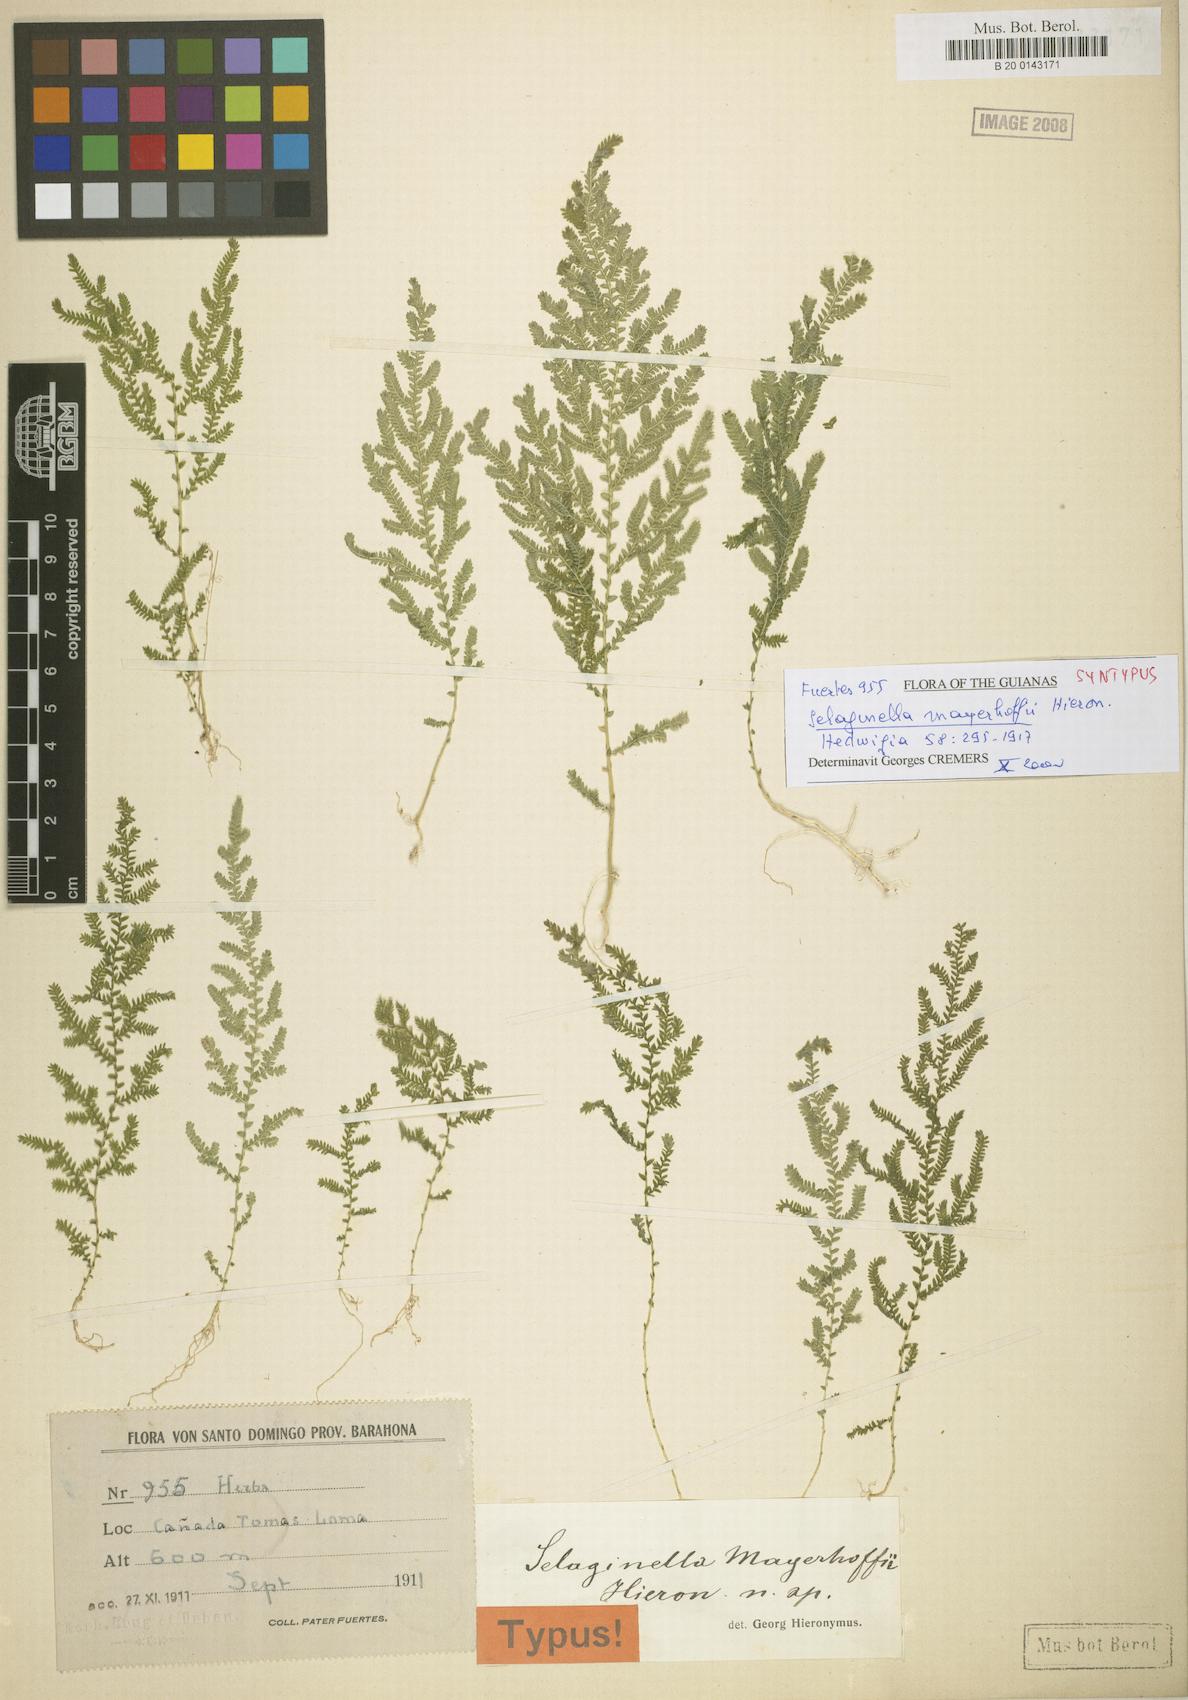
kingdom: Plantae
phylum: Tracheophyta
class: Lycopodiopsida
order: Selaginellales
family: Selaginellaceae
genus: Selaginella
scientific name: Selaginella flabellum
